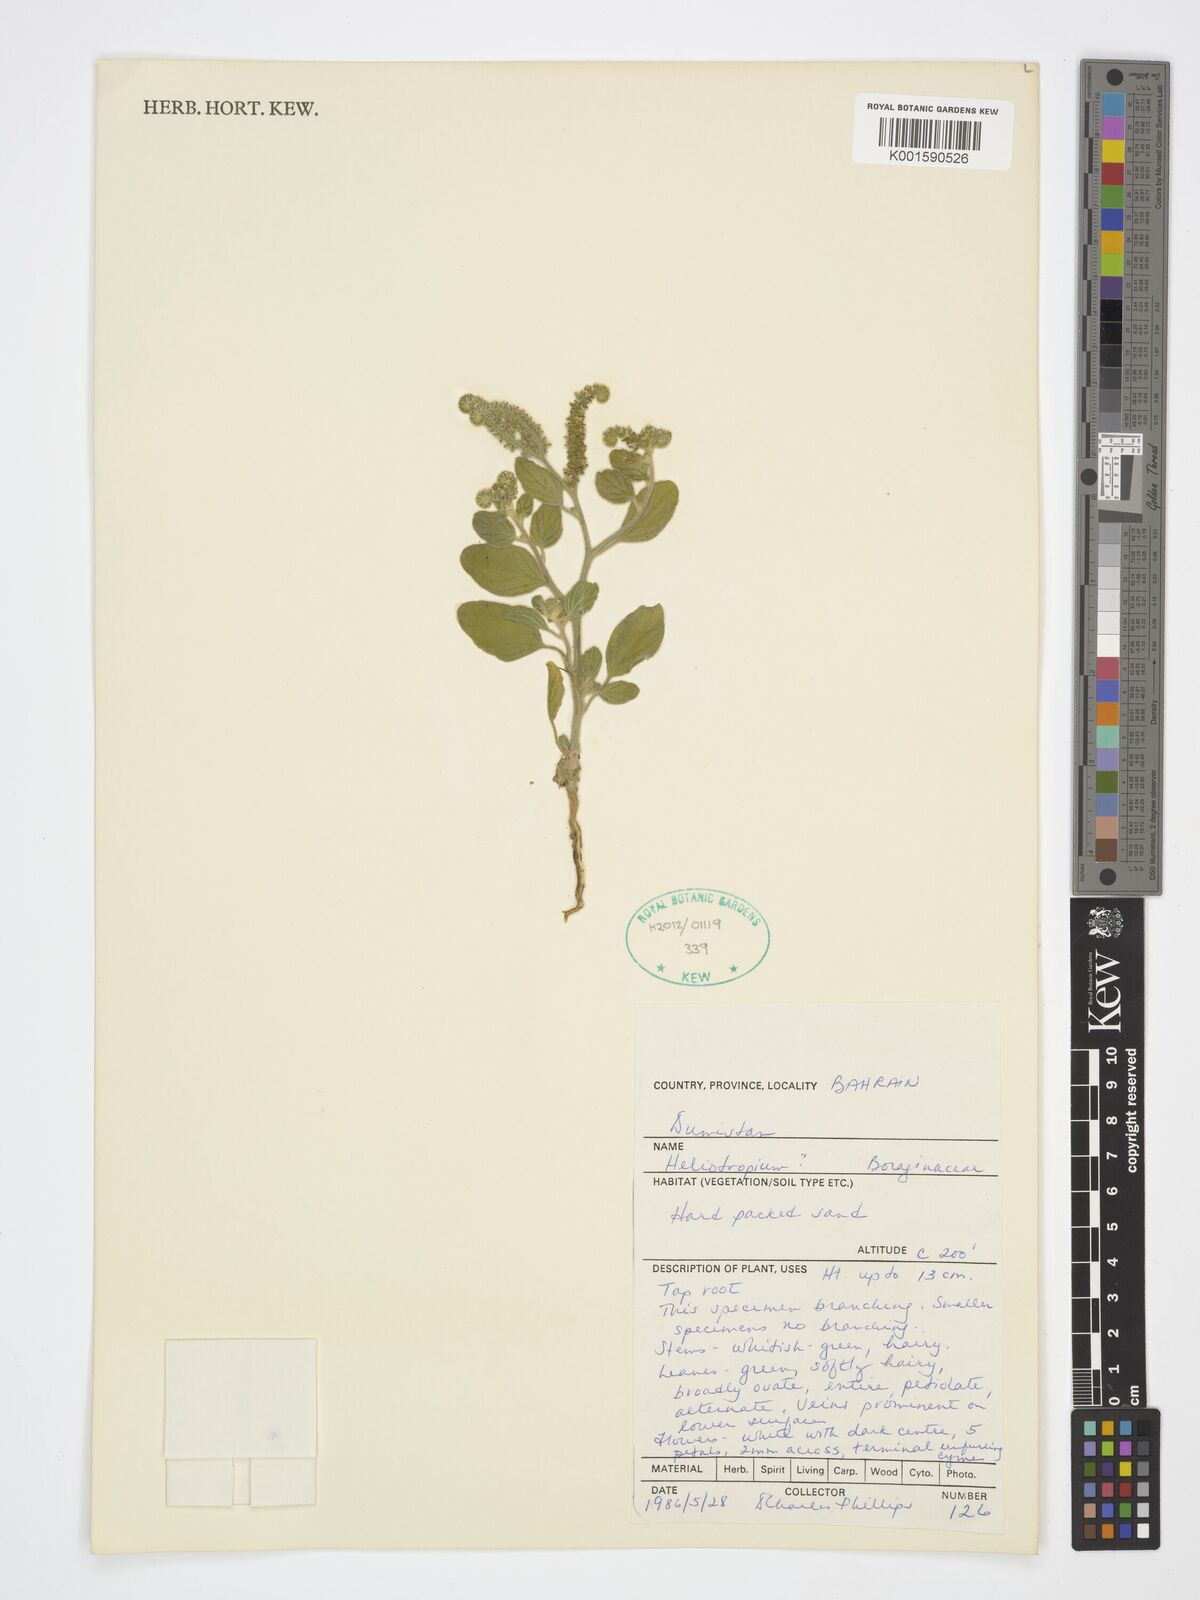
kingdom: Plantae
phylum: Tracheophyta
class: Magnoliopsida
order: Boraginales
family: Heliotropiaceae
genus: Heliotropium
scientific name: Heliotropium
